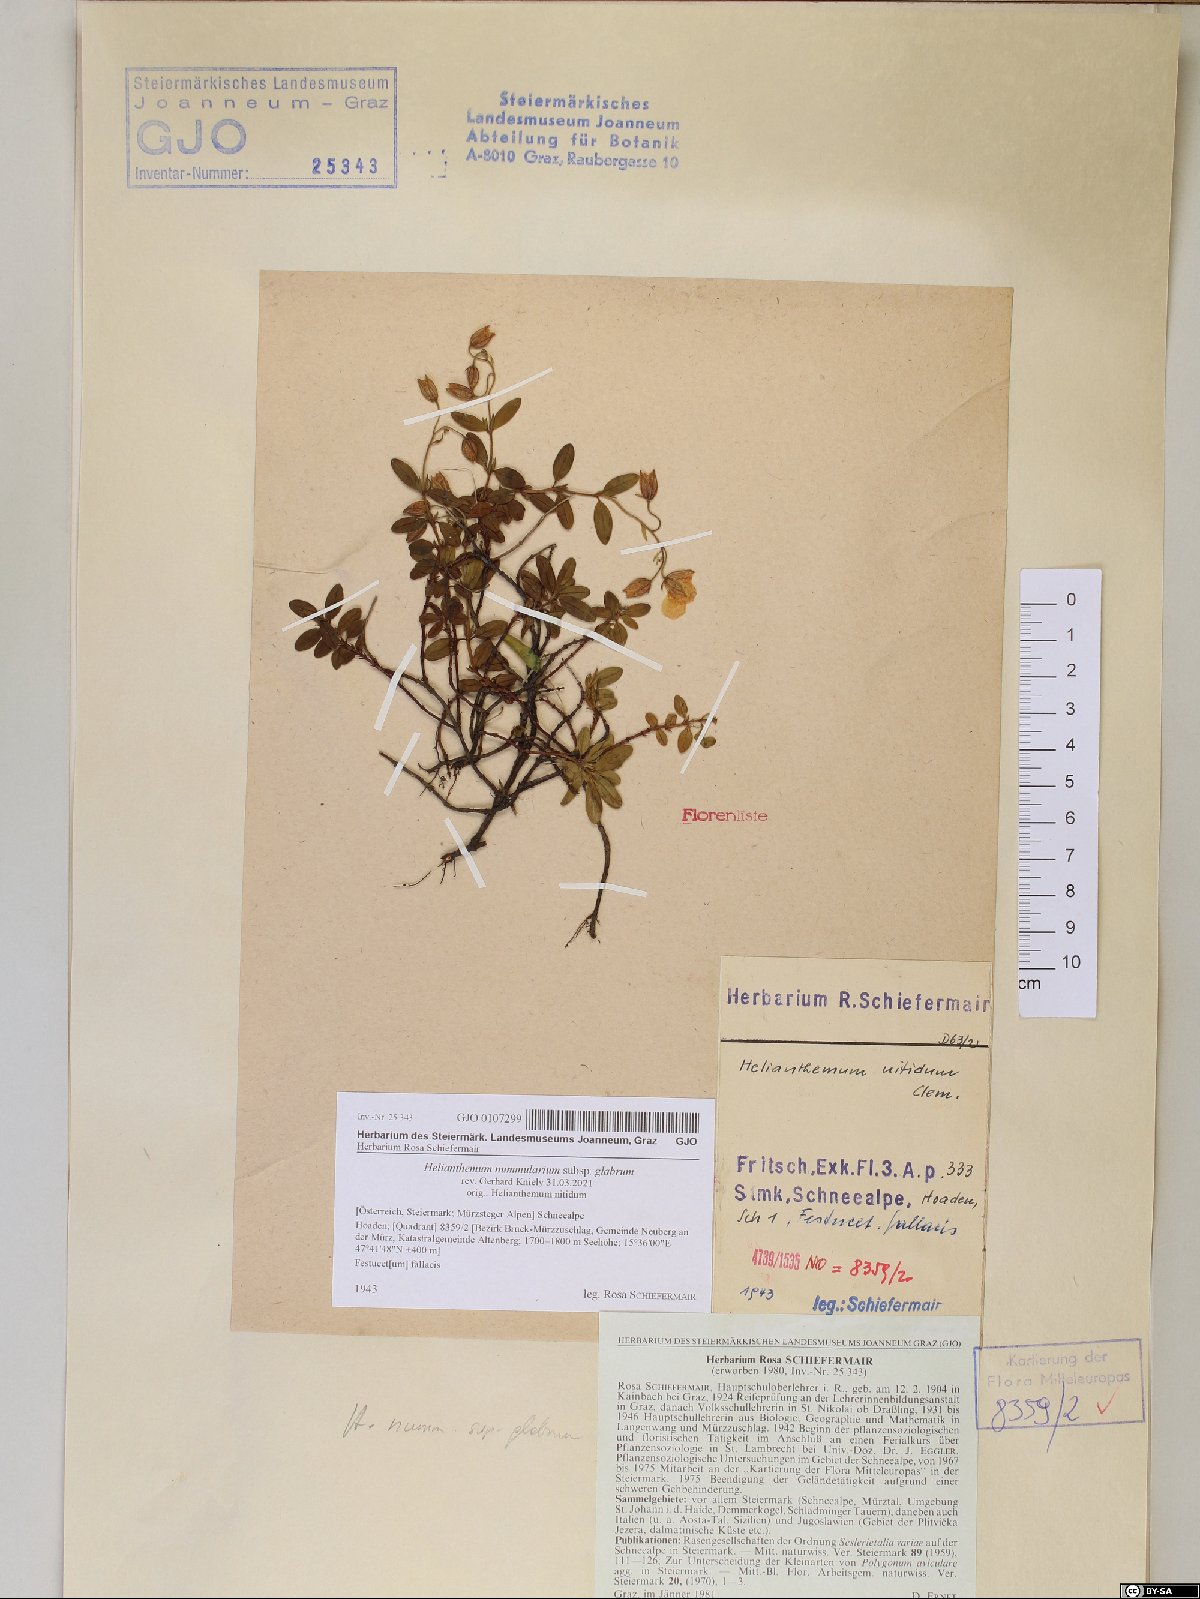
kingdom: Plantae
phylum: Tracheophyta
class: Magnoliopsida
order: Malvales
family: Cistaceae
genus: Helianthemum
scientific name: Helianthemum nummularium
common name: Common rock-rose
